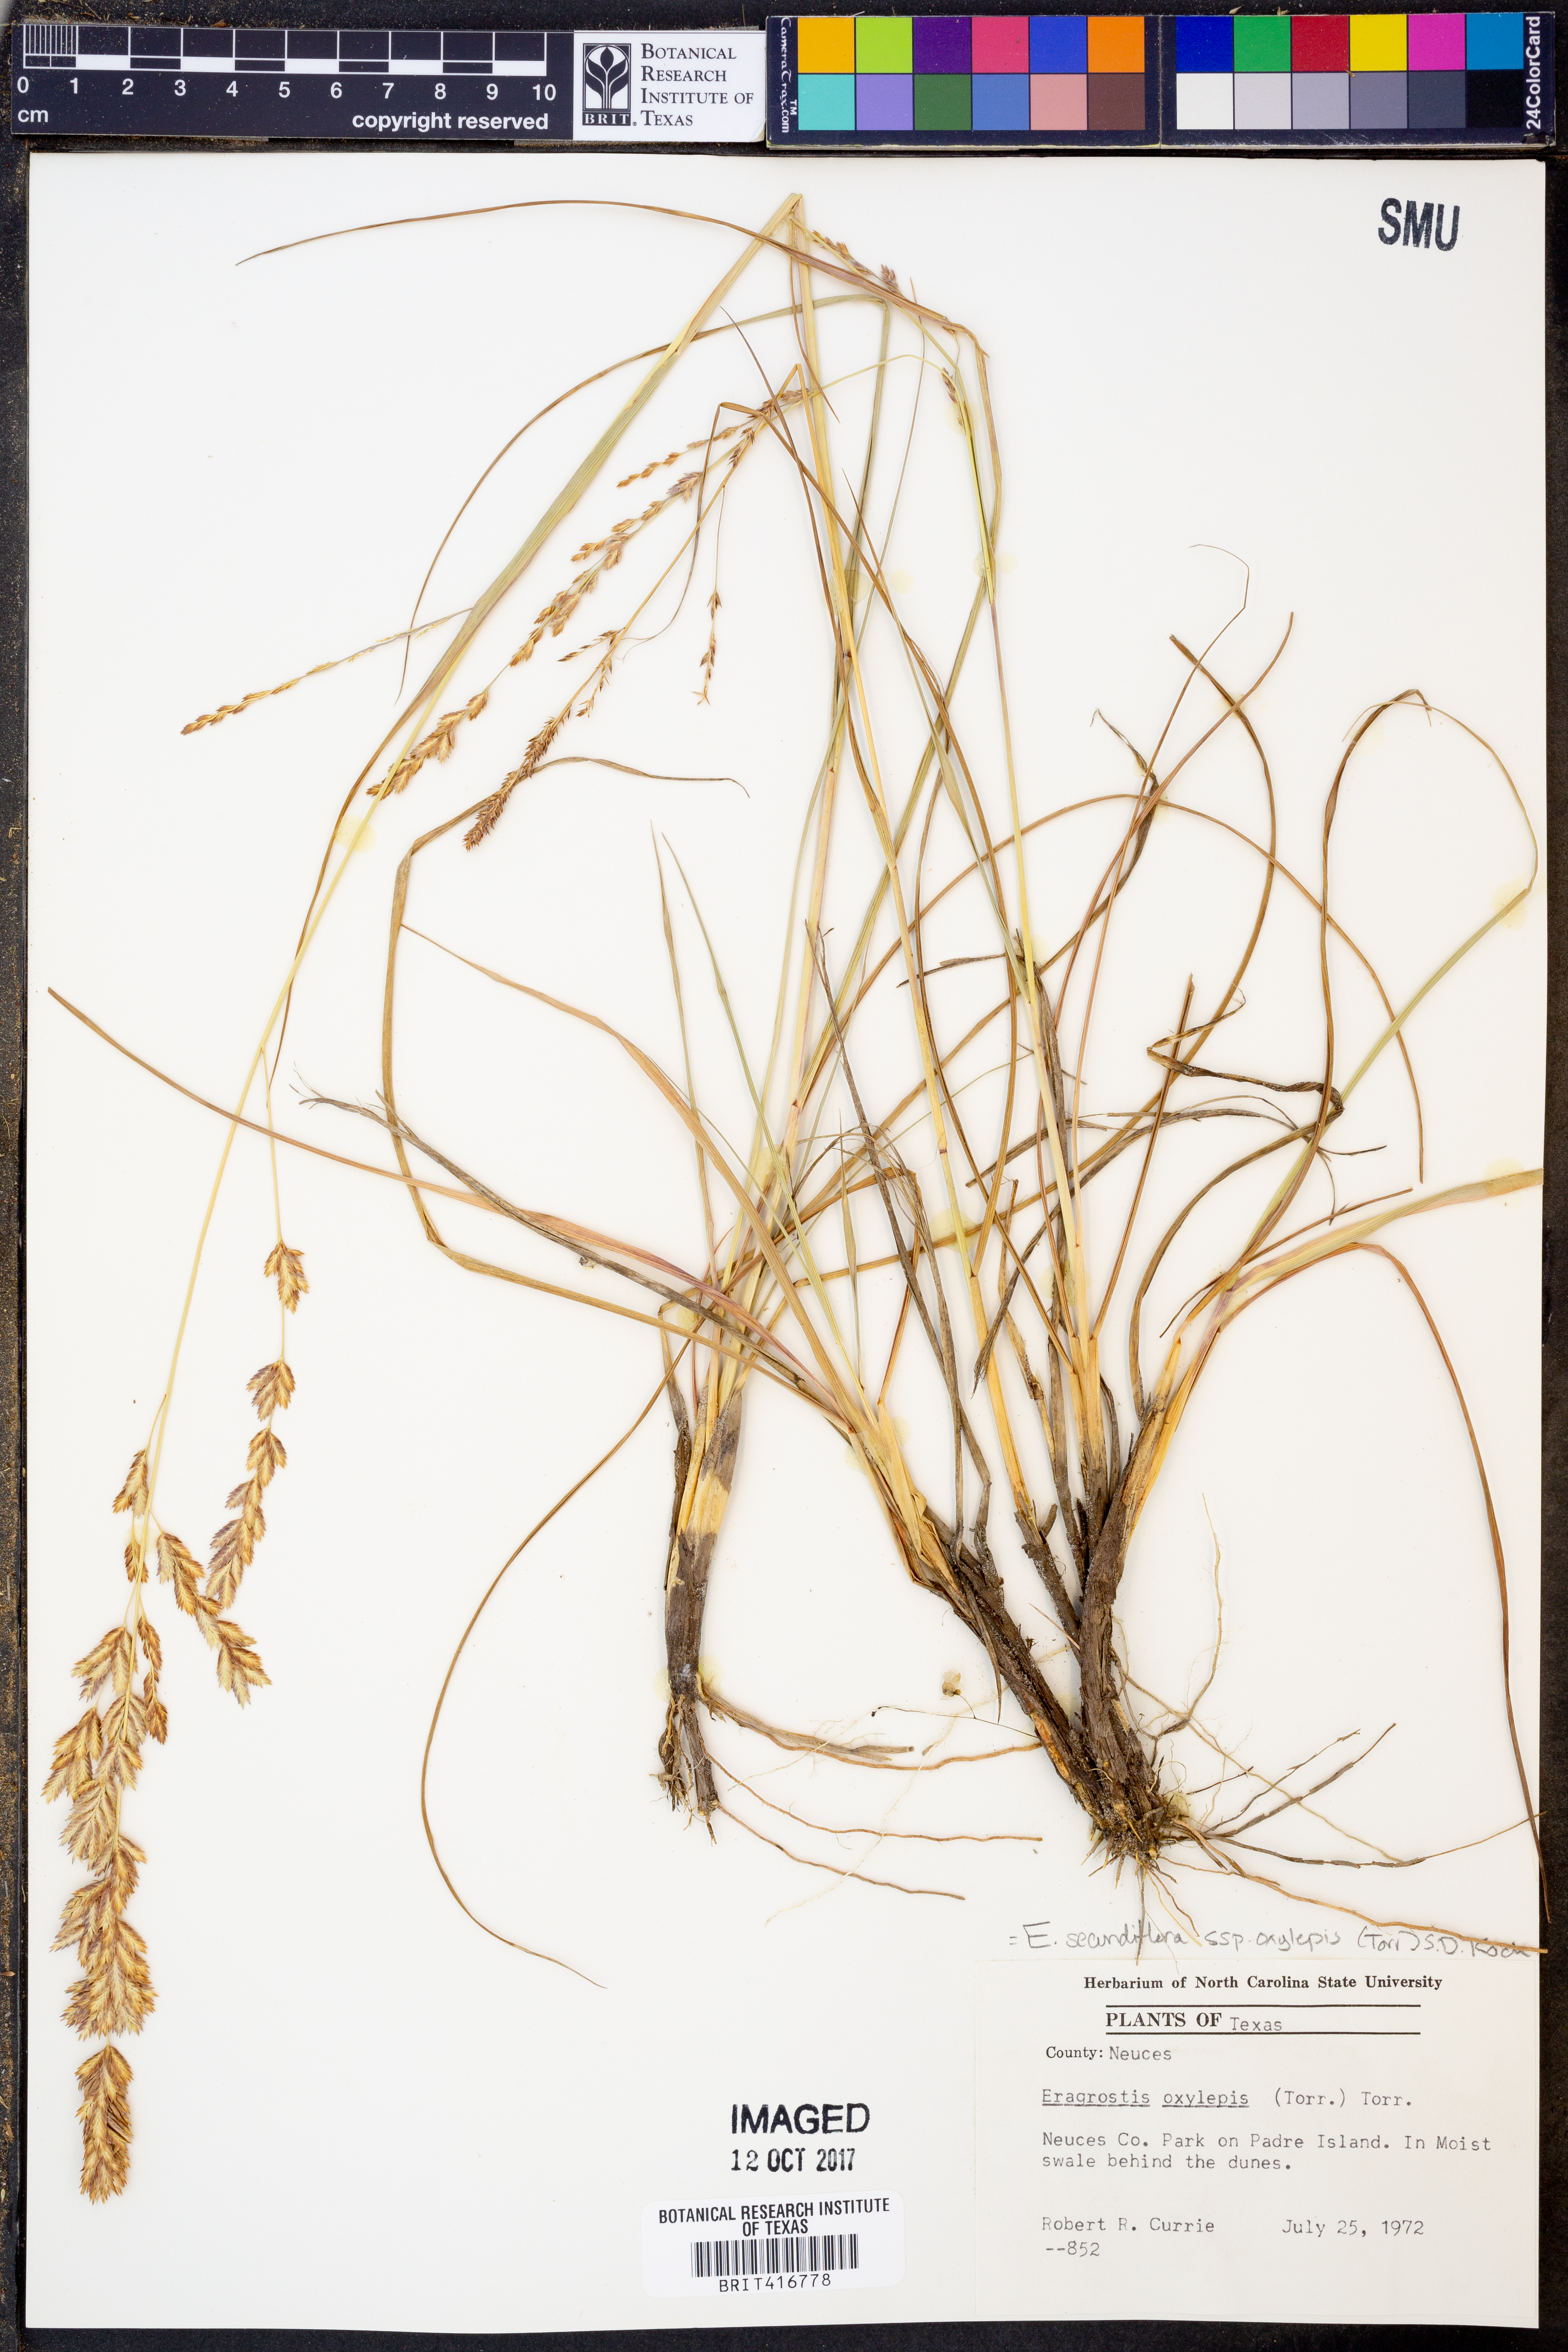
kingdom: Plantae
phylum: Tracheophyta
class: Liliopsida
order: Poales
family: Poaceae
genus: Eragrostis
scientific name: Eragrostis secundiflora
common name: Red love grass
